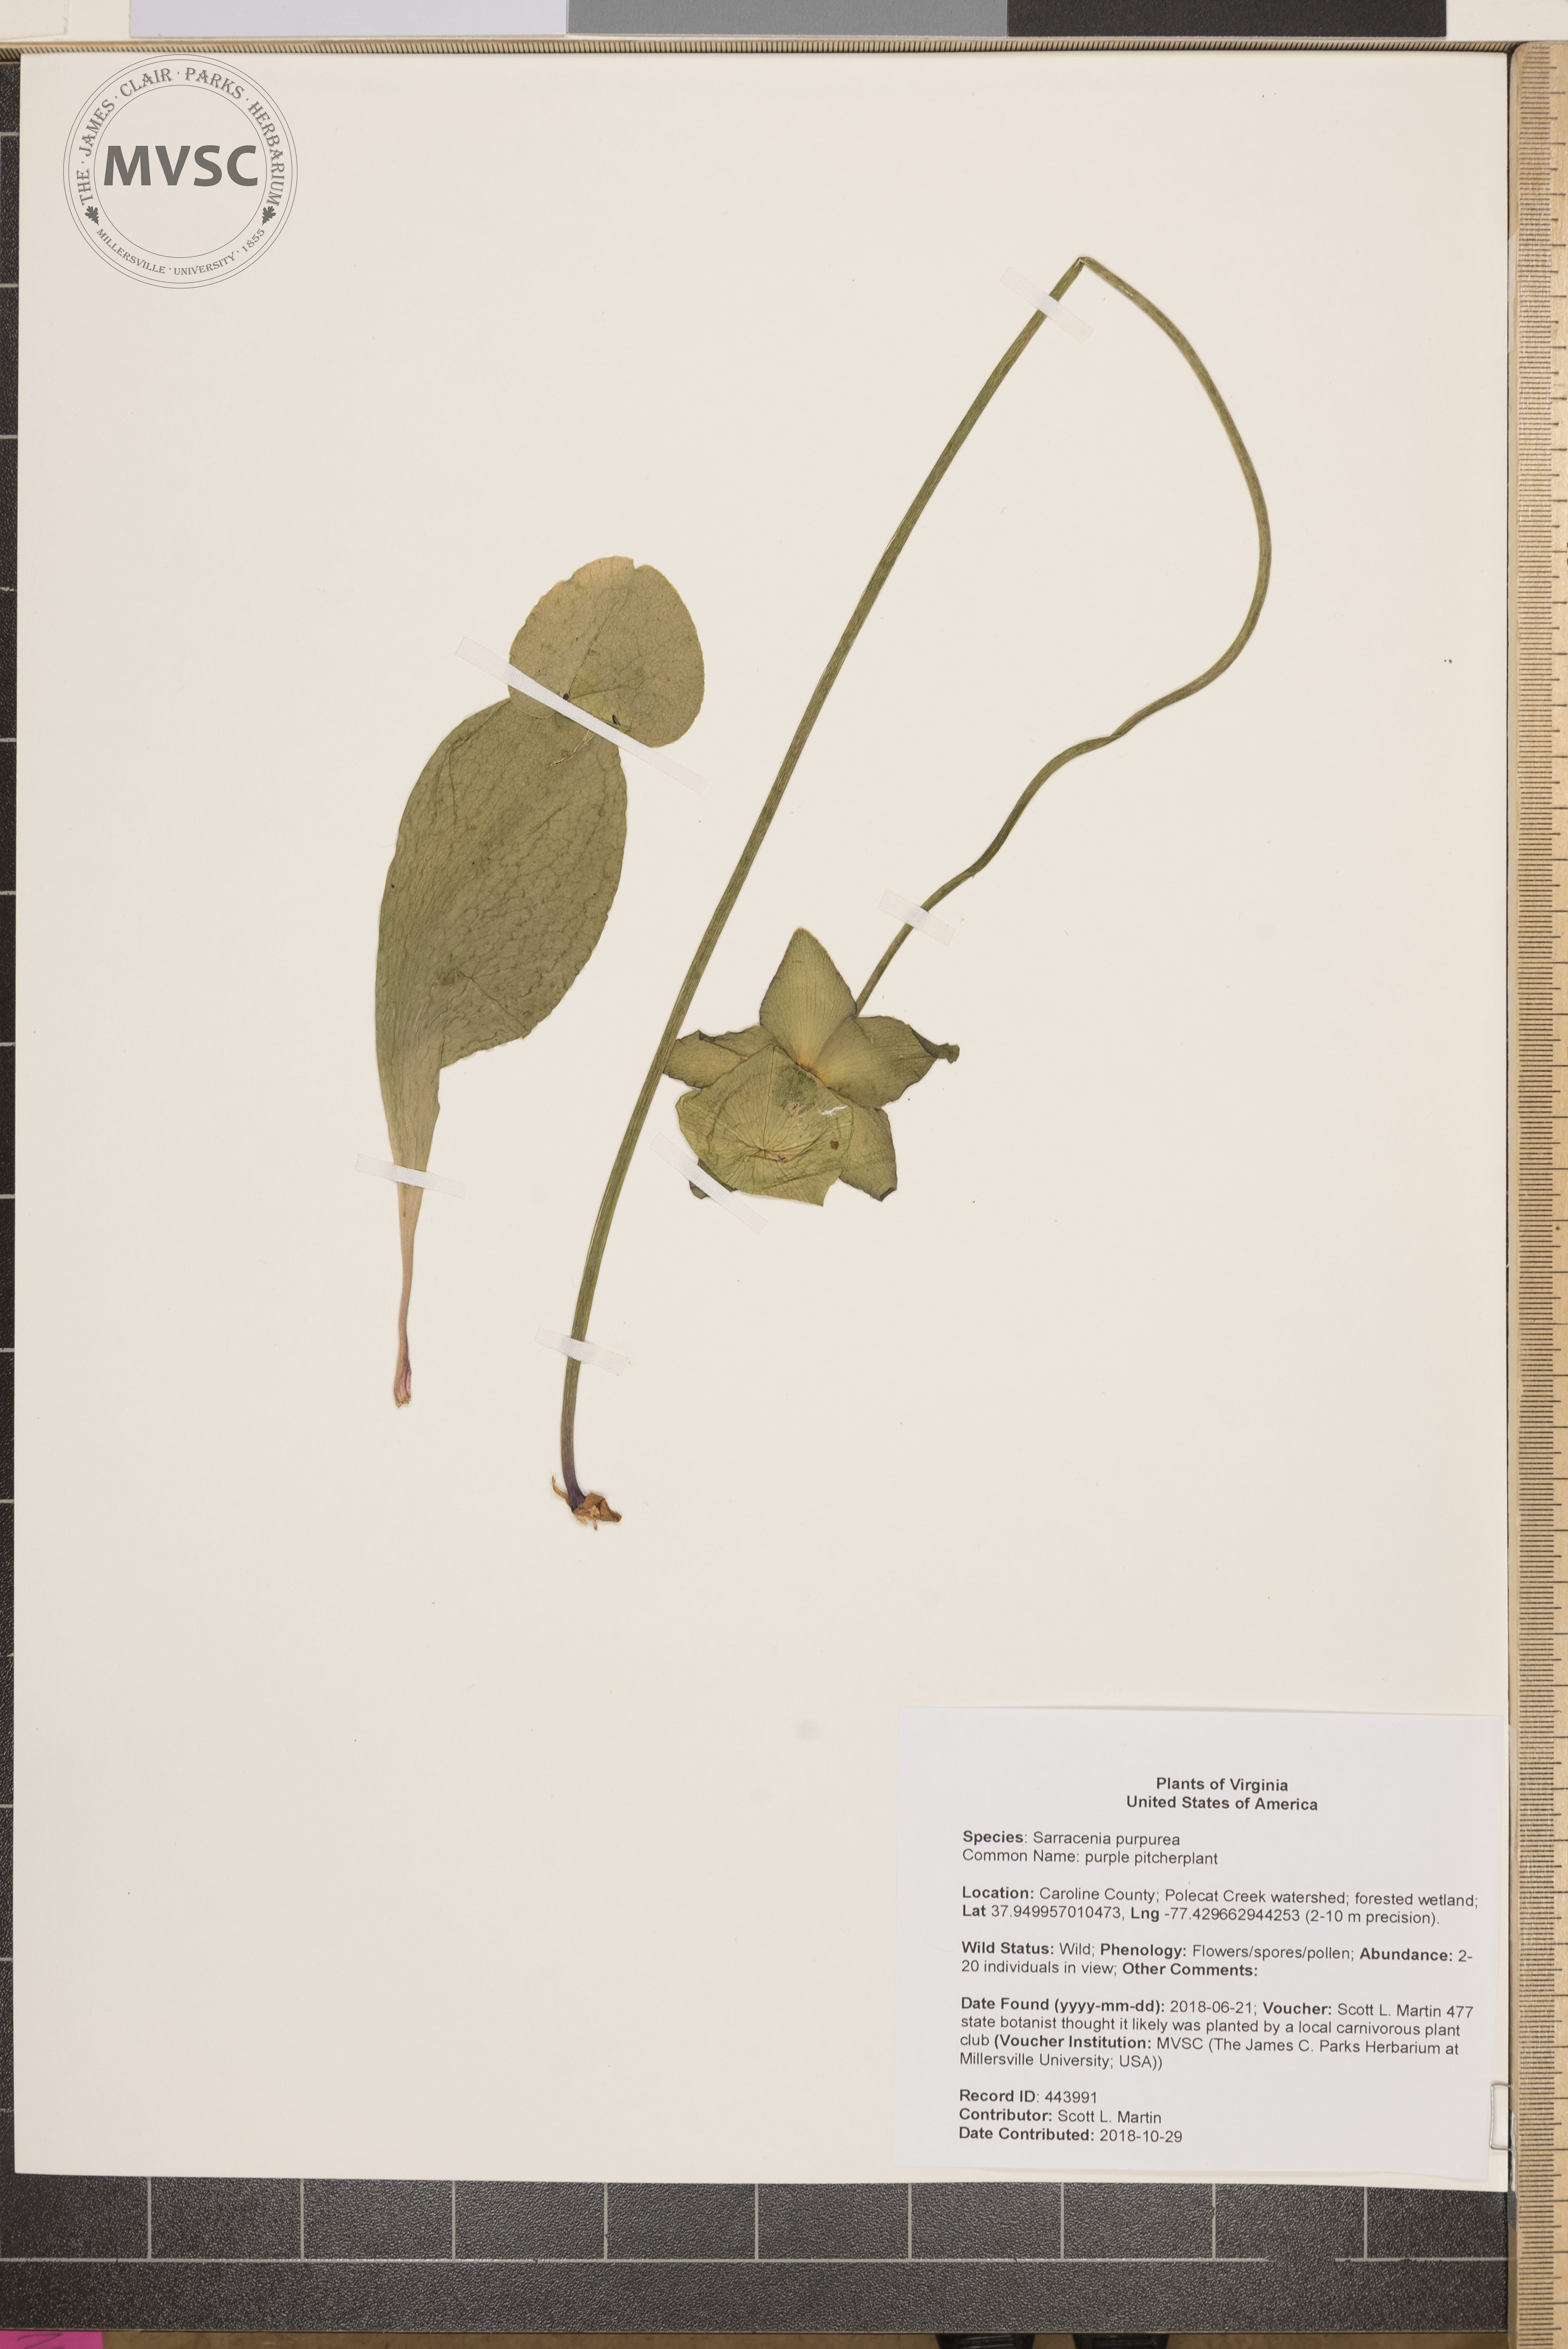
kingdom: Plantae
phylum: Tracheophyta
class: Magnoliopsida
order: Ericales
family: Sarraceniaceae
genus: Sarracenia
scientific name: Sarracenia purpurea
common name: purple pitcherplant
